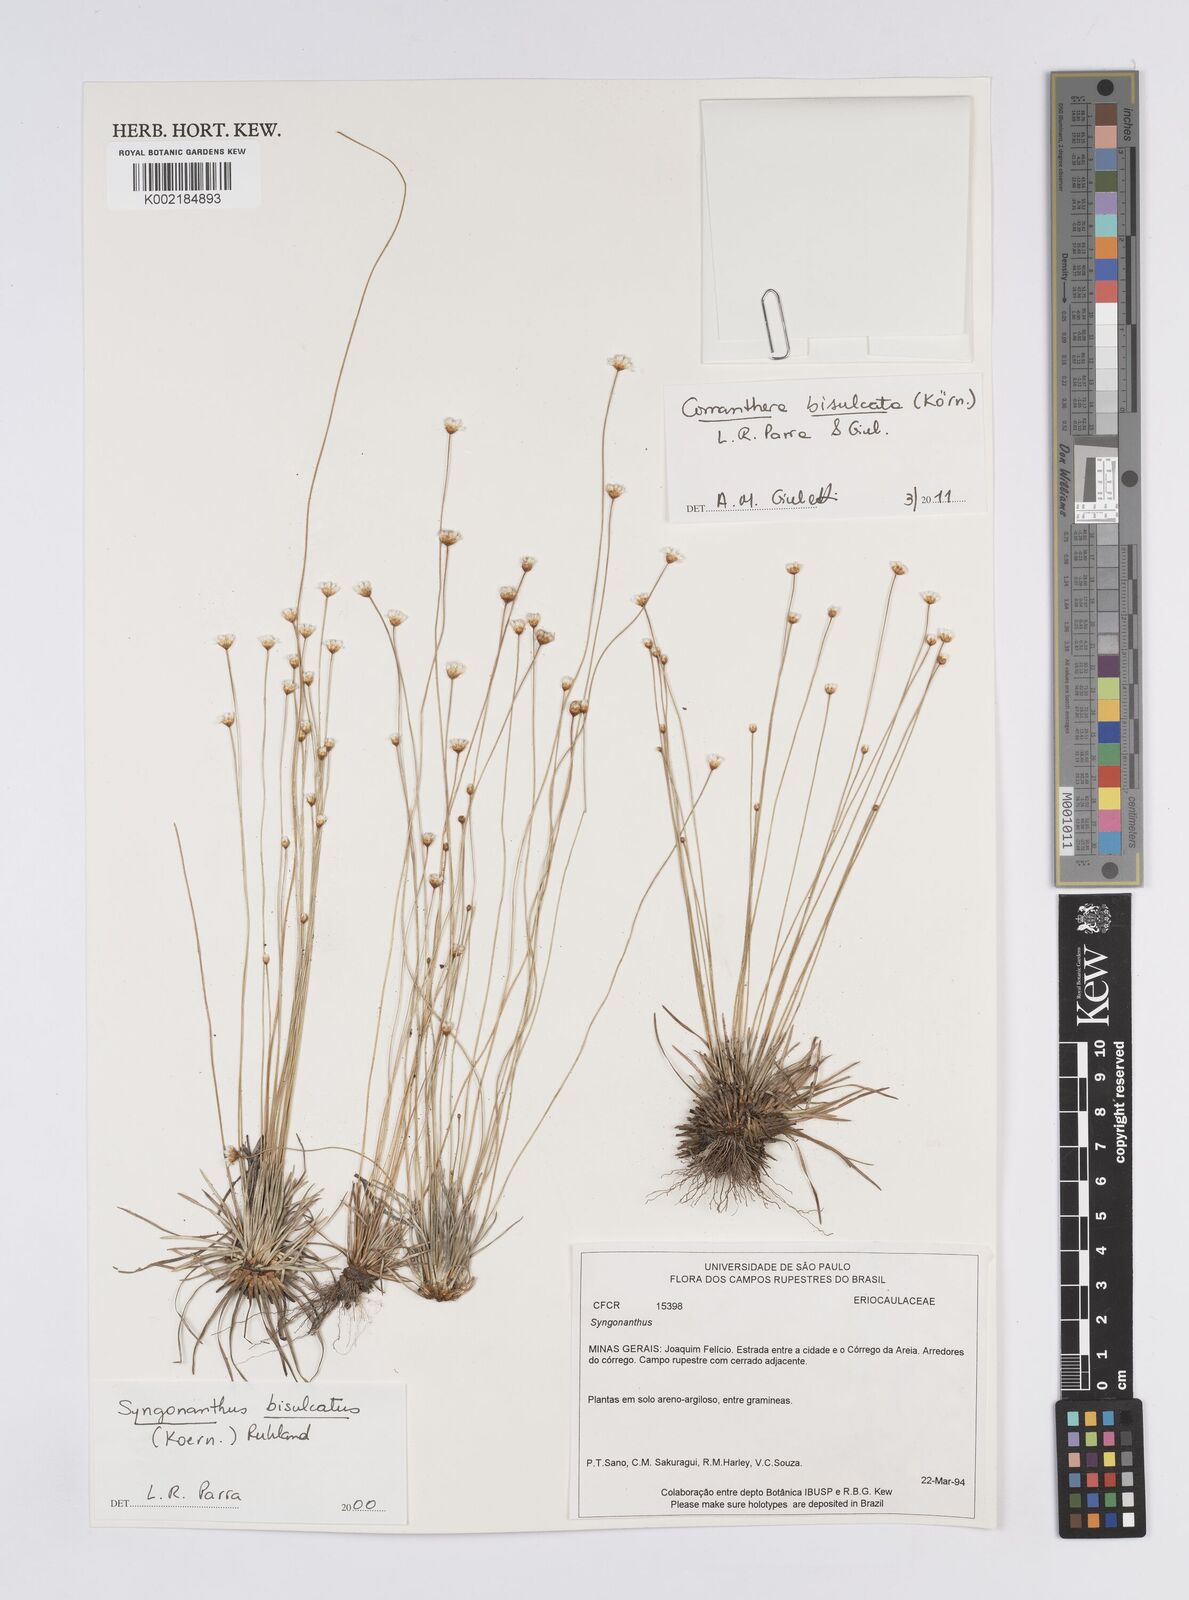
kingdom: Plantae
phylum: Tracheophyta
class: Liliopsida
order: Poales
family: Eriocaulaceae
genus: Comanthera
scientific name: Comanthera bisulcata
